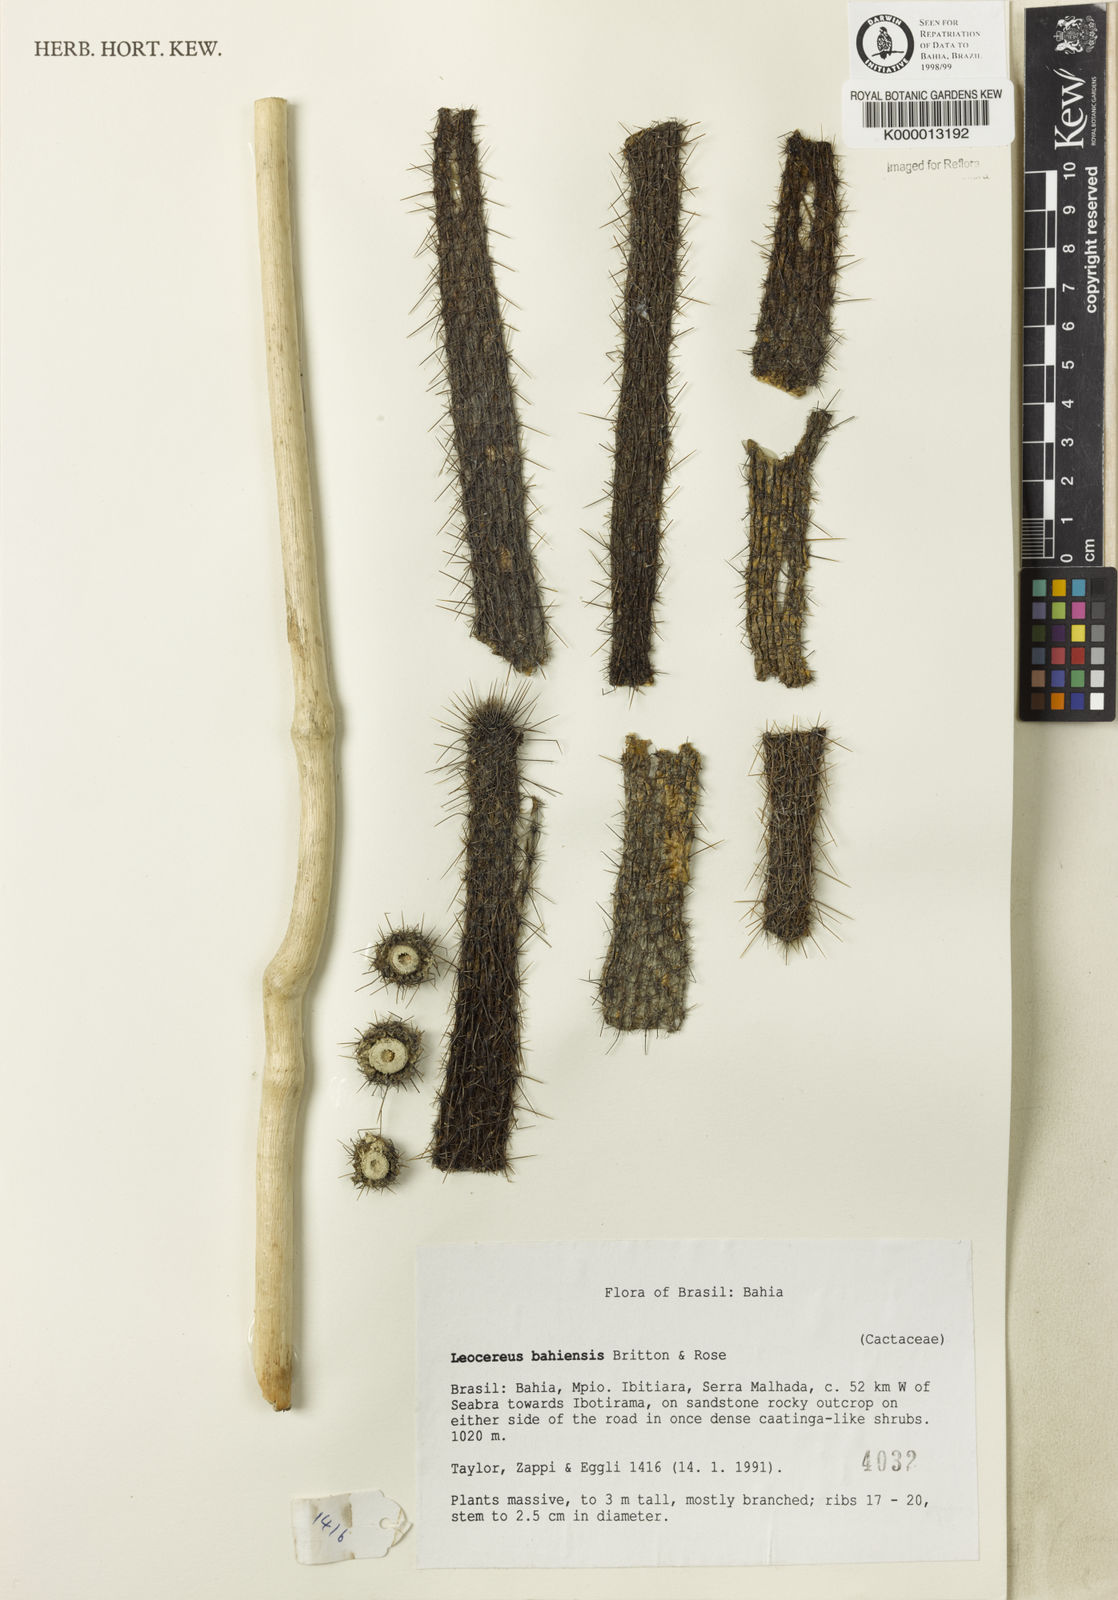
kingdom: Plantae
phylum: Tracheophyta
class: Magnoliopsida
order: Caryophyllales
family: Cactaceae
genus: Leocereus
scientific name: Leocereus bahiensis
